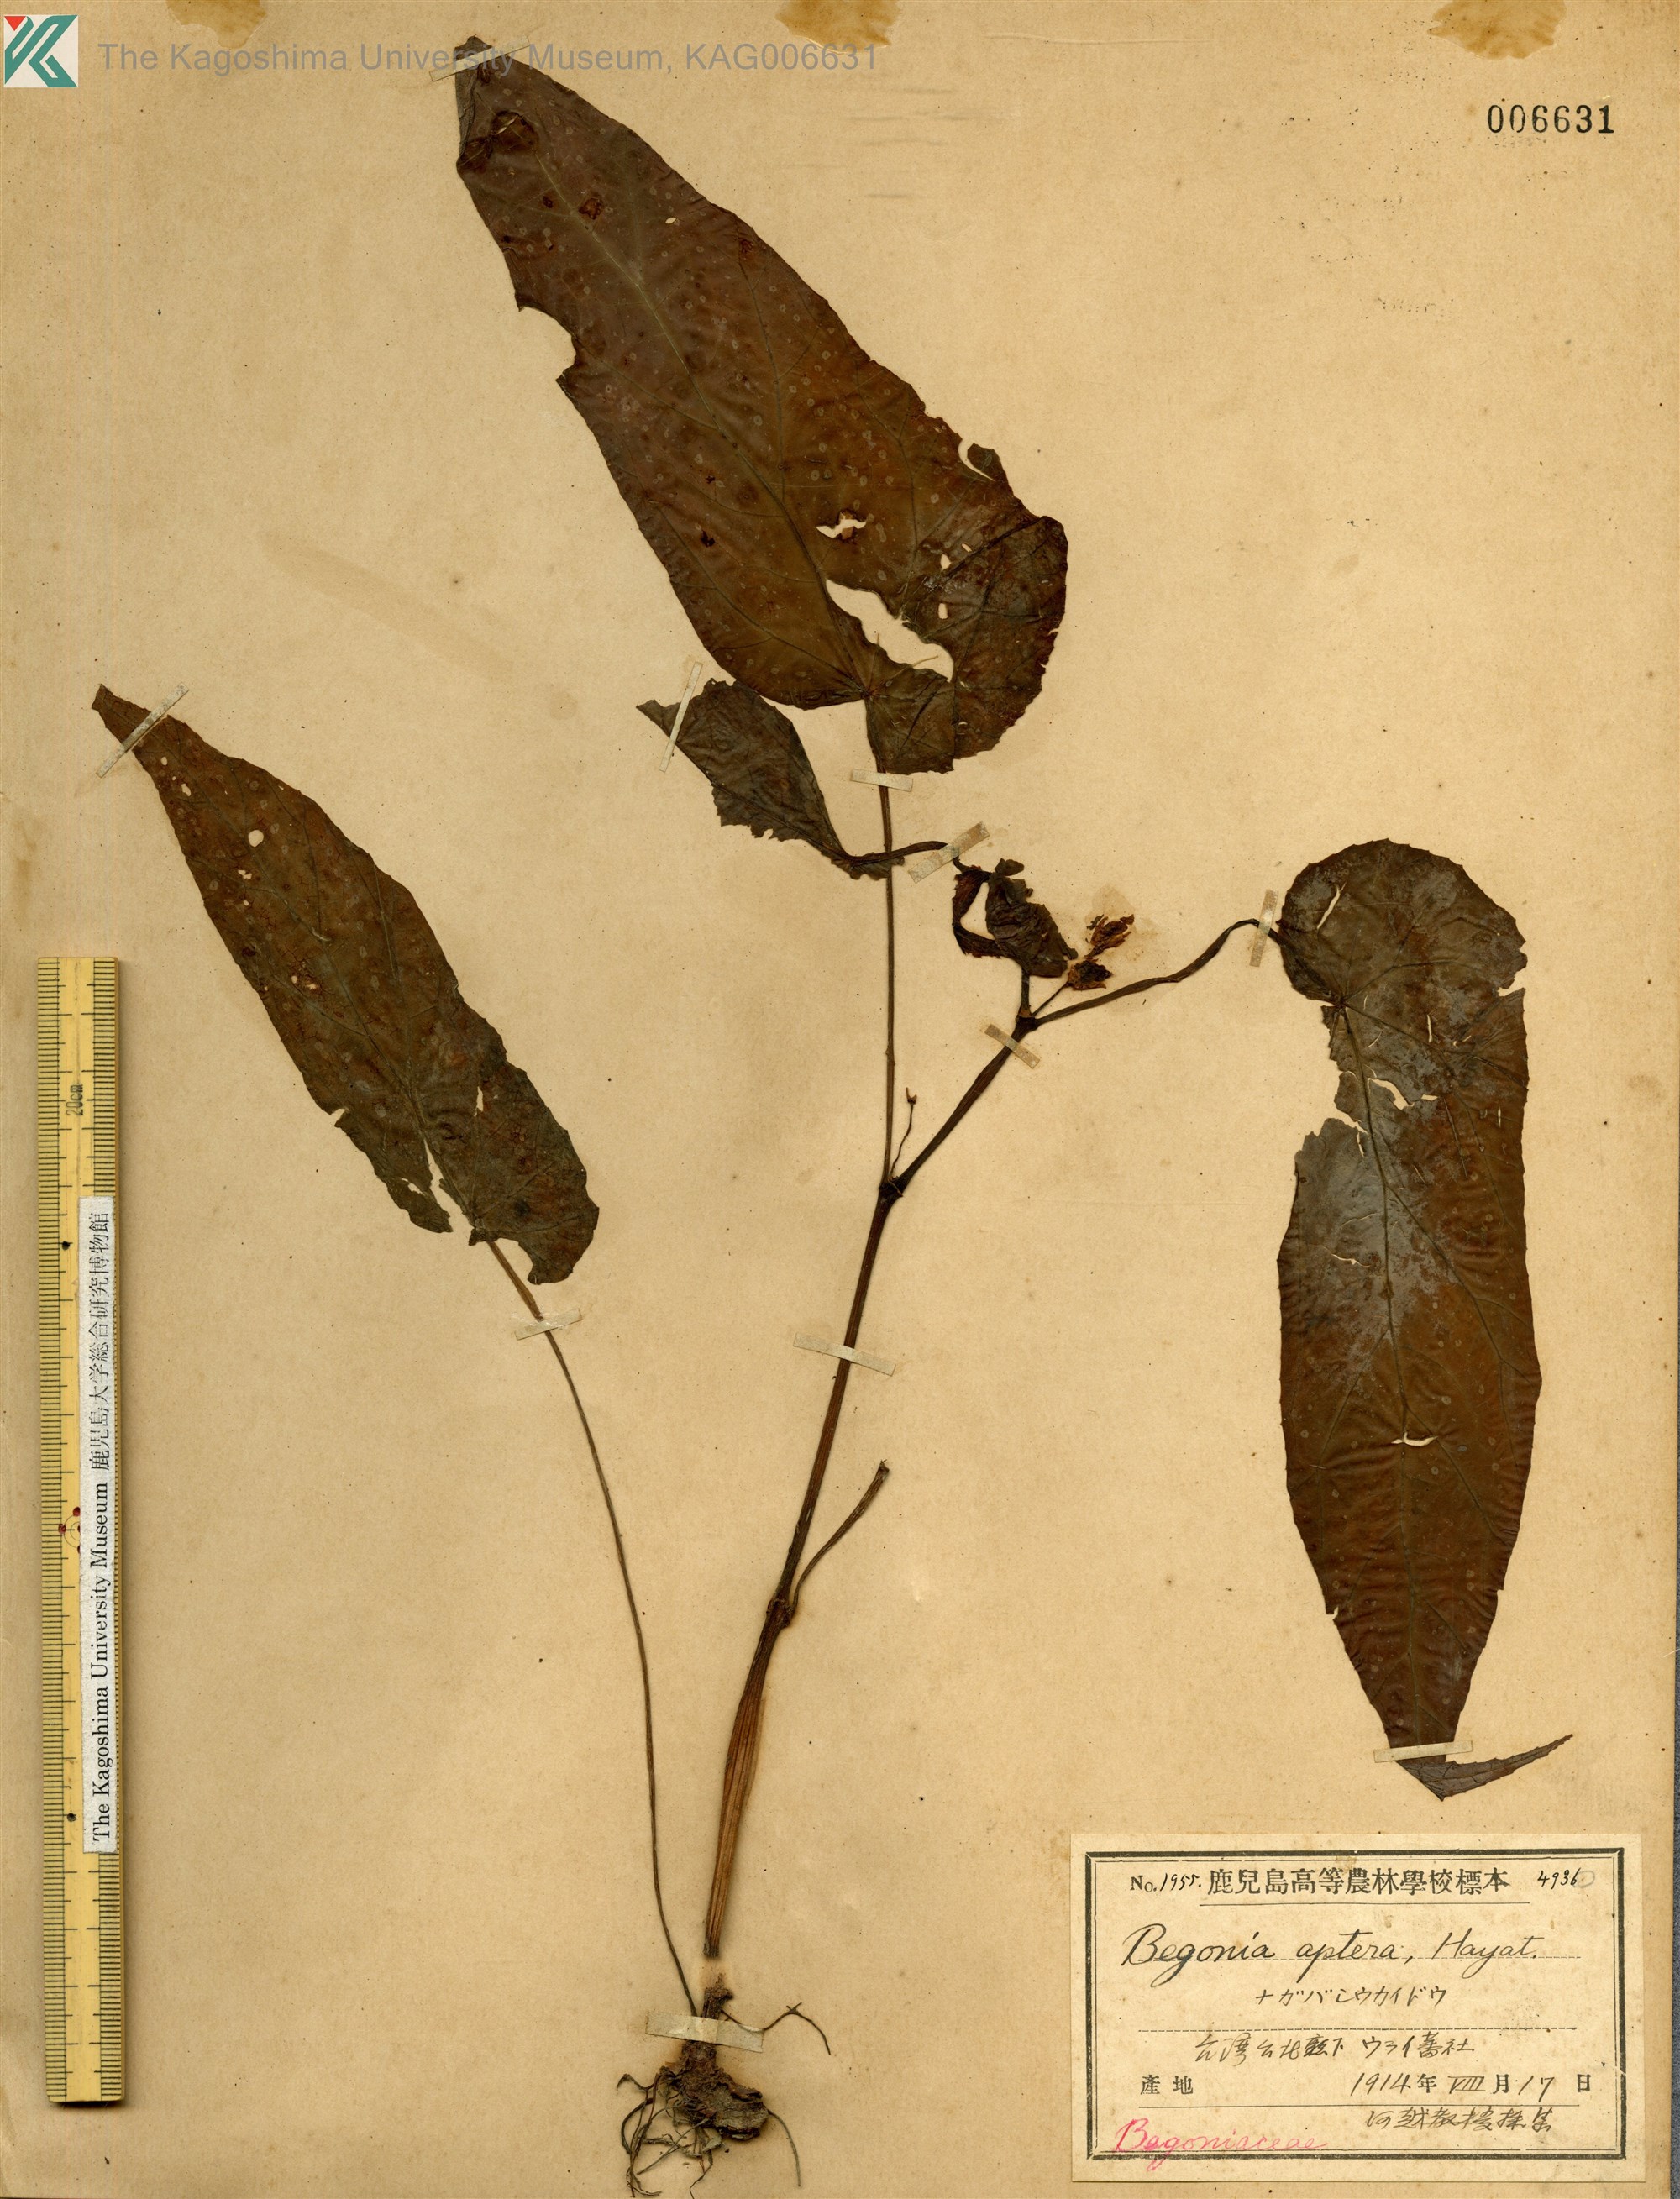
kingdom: Plantae
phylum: Tracheophyta
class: Magnoliopsida
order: Cucurbitales
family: Begoniaceae
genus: Begonia
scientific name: Begonia aptera
